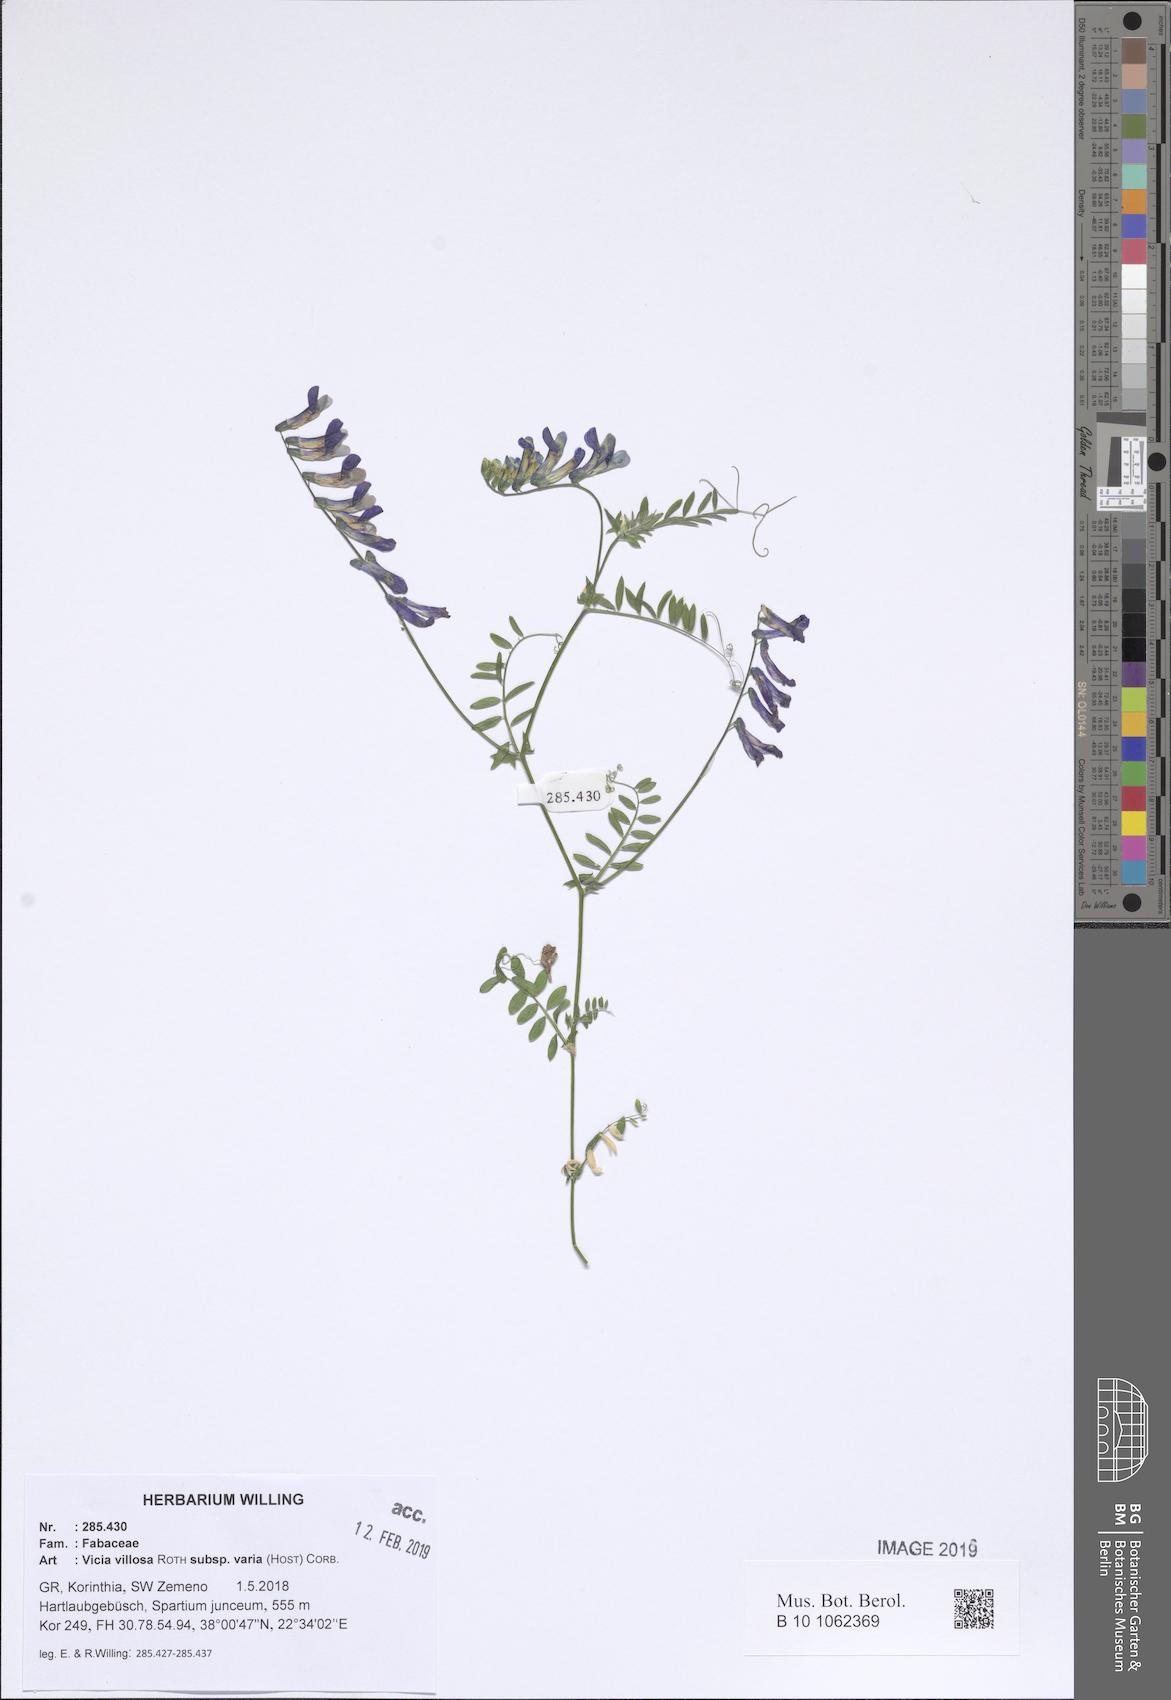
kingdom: Plantae
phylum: Tracheophyta
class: Magnoliopsida
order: Fabales
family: Fabaceae
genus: Vicia
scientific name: Vicia villosa
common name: Fodder vetch
